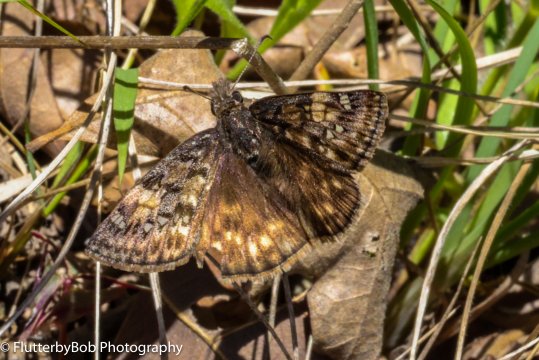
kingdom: Animalia
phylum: Arthropoda
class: Insecta
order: Lepidoptera
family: Hesperiidae
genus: Gesta
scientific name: Gesta
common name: Juvenal's Duskywing
